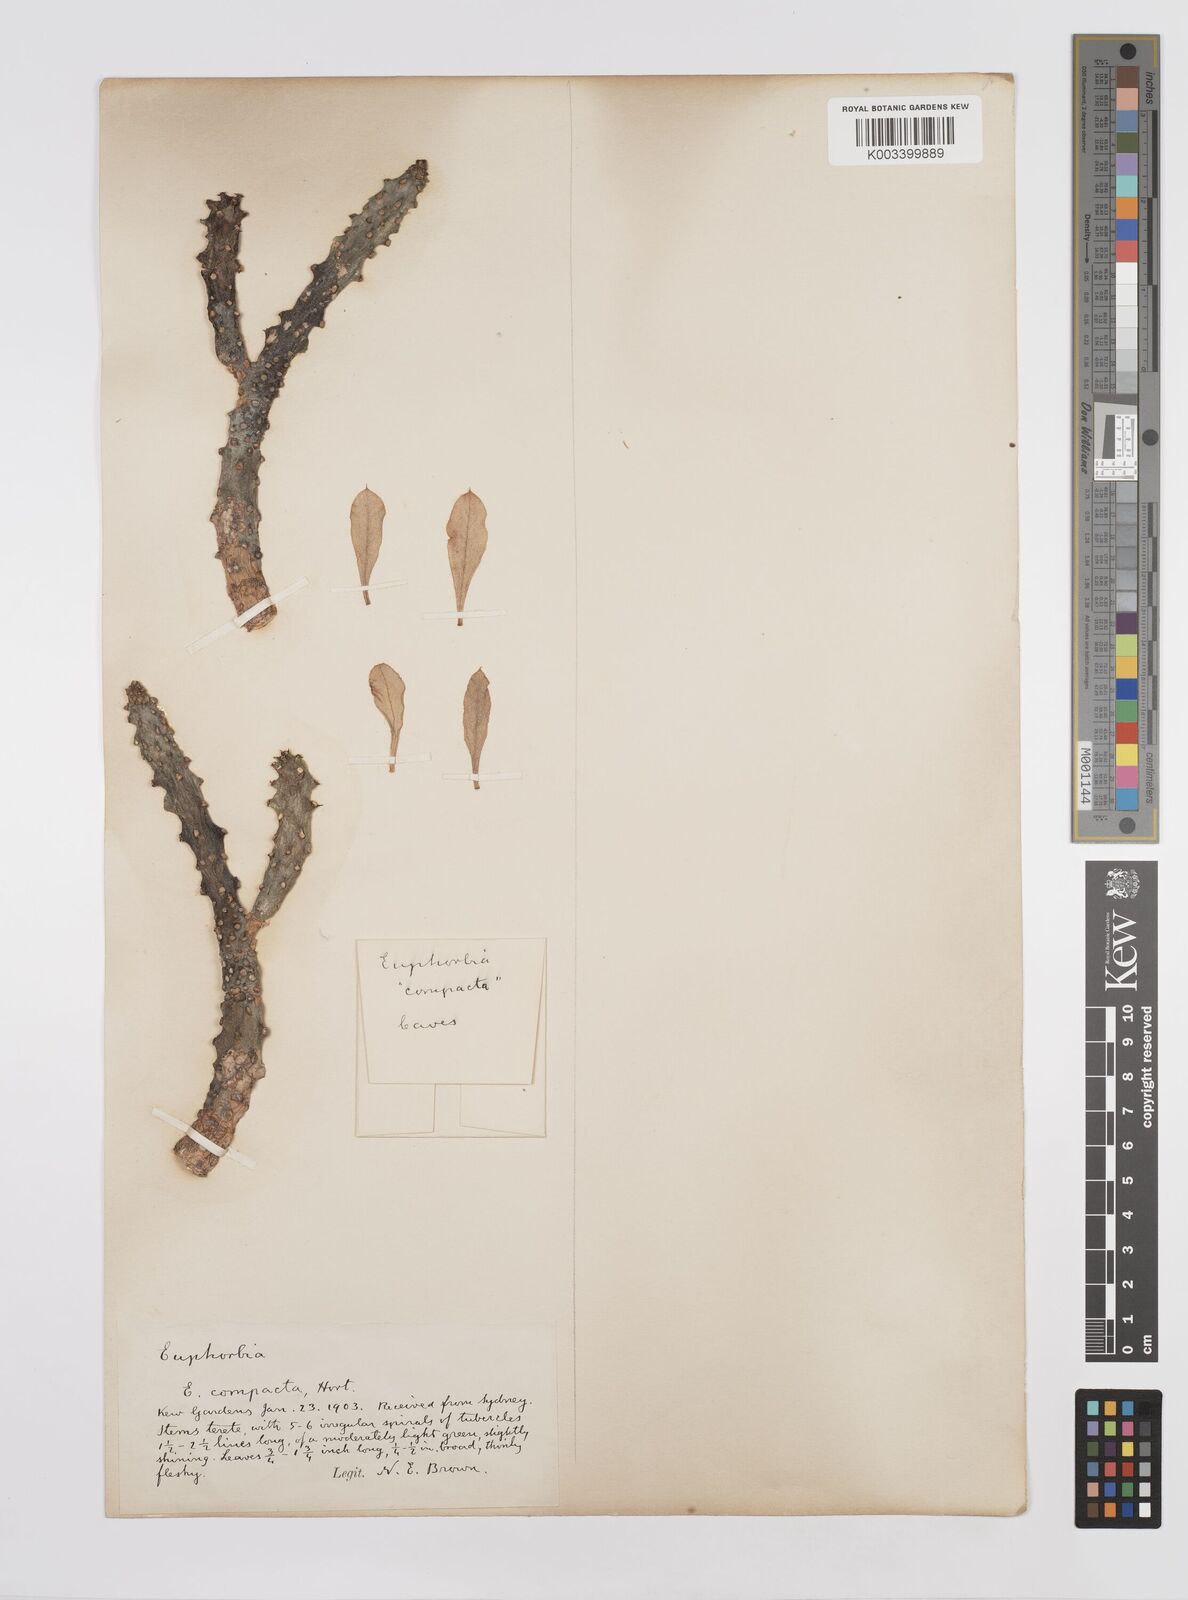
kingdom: Plantae
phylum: Tracheophyta
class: Magnoliopsida
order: Malpighiales
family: Euphorbiaceae
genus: Euphorbia
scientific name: Euphorbia
